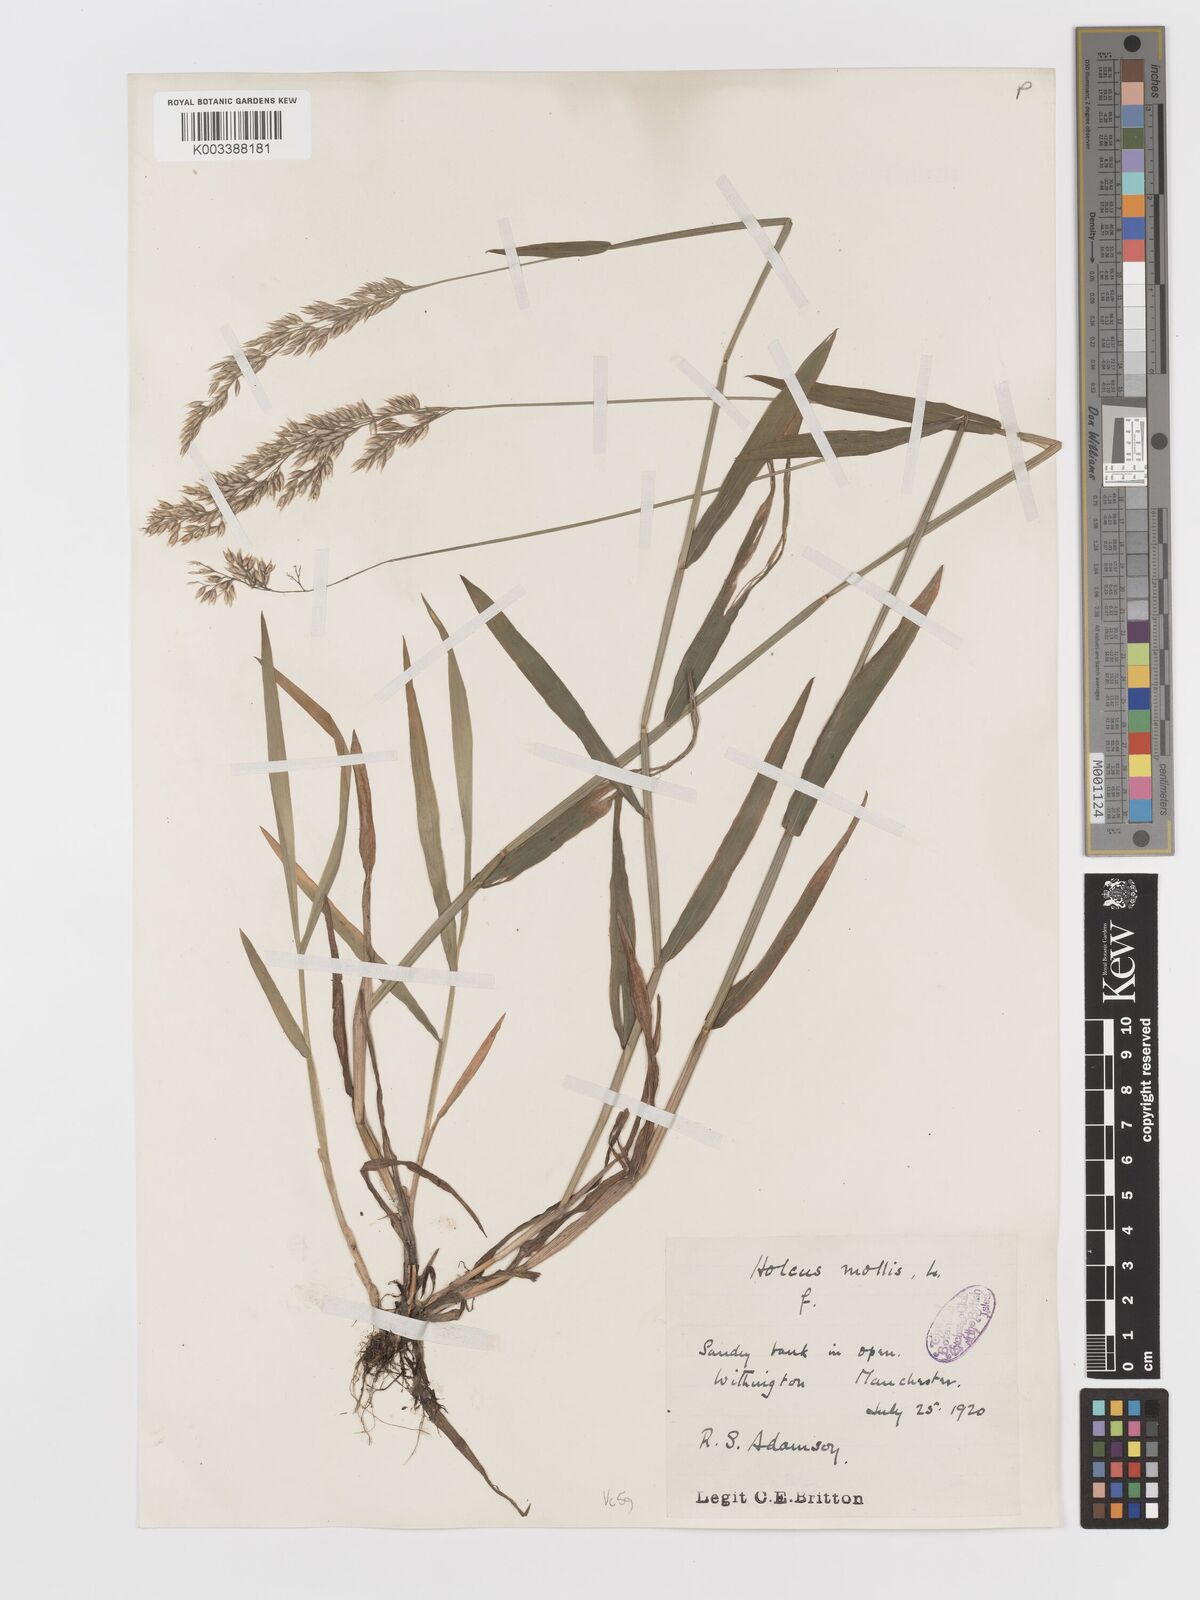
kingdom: Plantae
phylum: Tracheophyta
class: Liliopsida
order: Poales
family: Poaceae
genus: Holcus
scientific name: Holcus mollis
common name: Creeping velvetgrass
